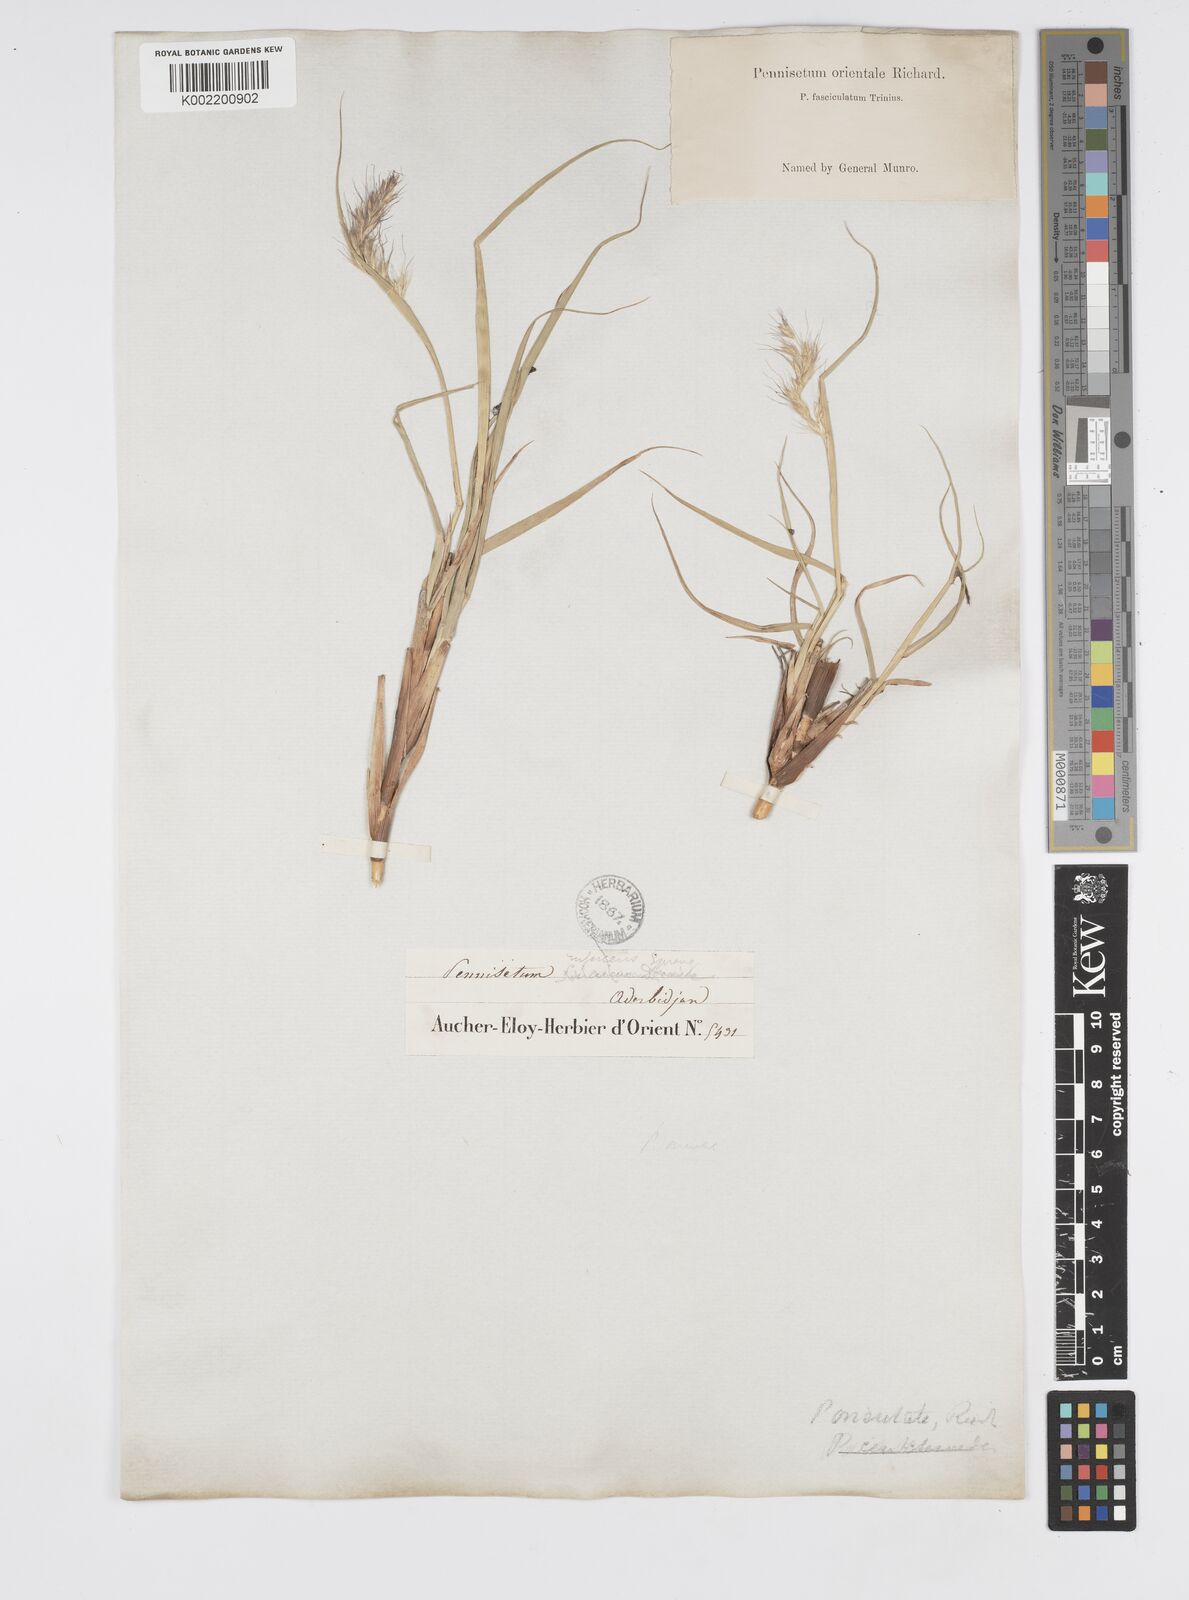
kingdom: Plantae
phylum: Tracheophyta
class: Liliopsida
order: Poales
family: Poaceae
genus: Cenchrus
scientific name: Cenchrus orientalis
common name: Oriental fountain grass
